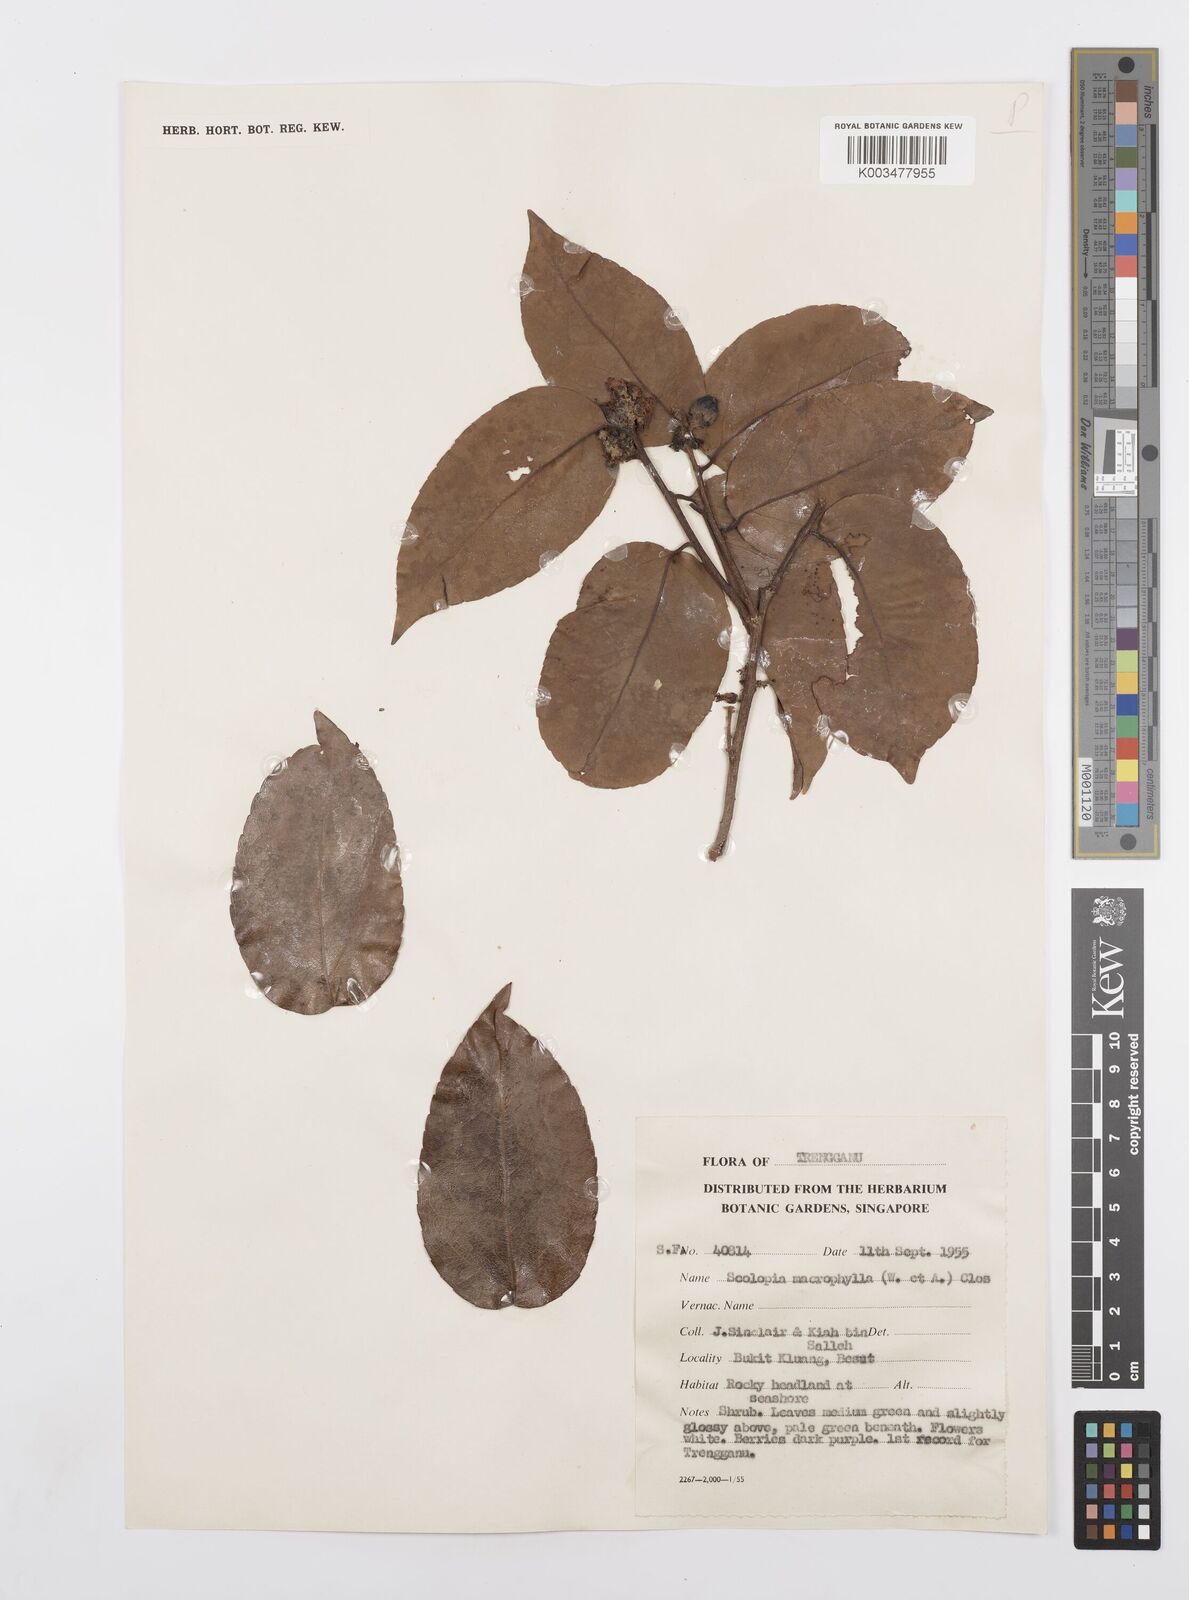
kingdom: Plantae
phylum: Tracheophyta
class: Magnoliopsida
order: Malpighiales
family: Salicaceae
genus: Scolopia
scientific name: Scolopia macrophylla
